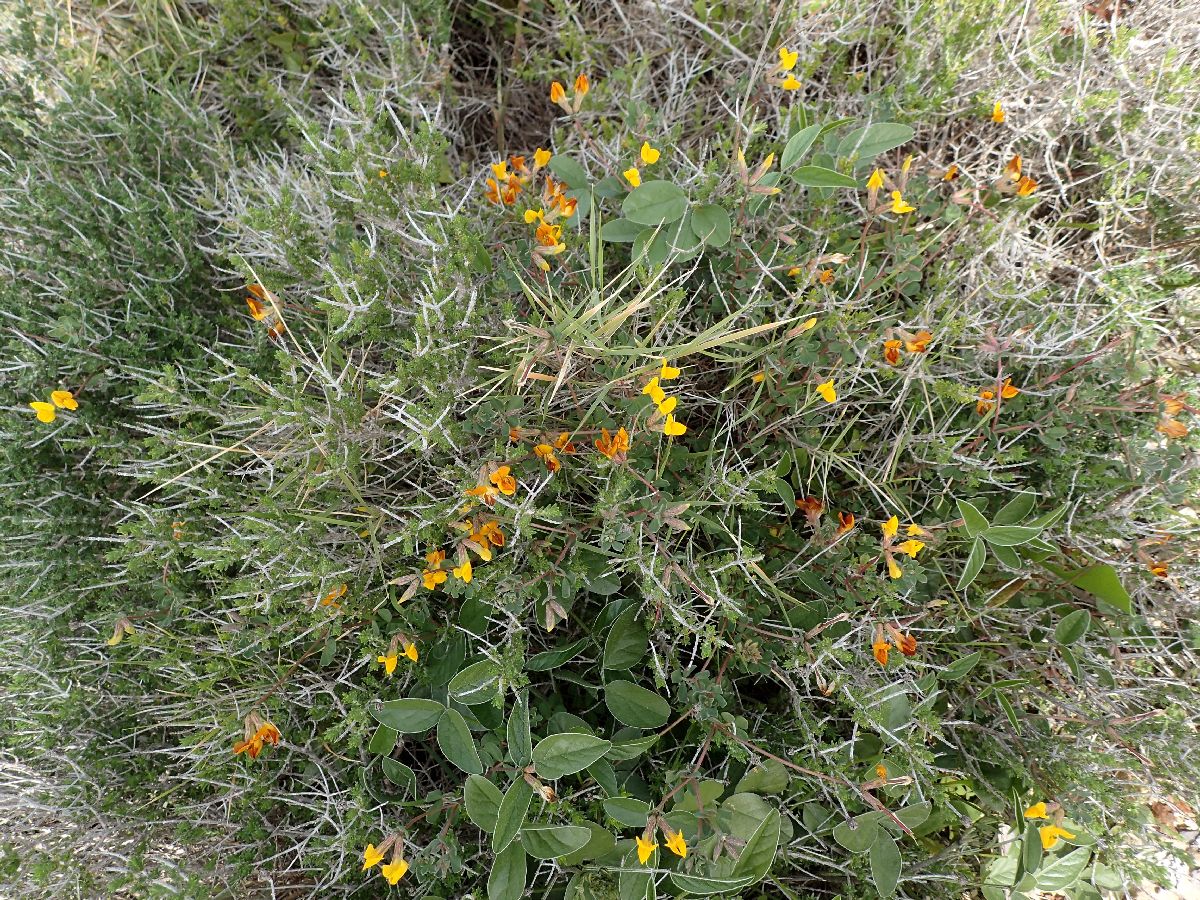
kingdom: Plantae
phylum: Tracheophyta
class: Magnoliopsida
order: Fabales
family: Fabaceae
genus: Lotus
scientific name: Lotus peregrinus
